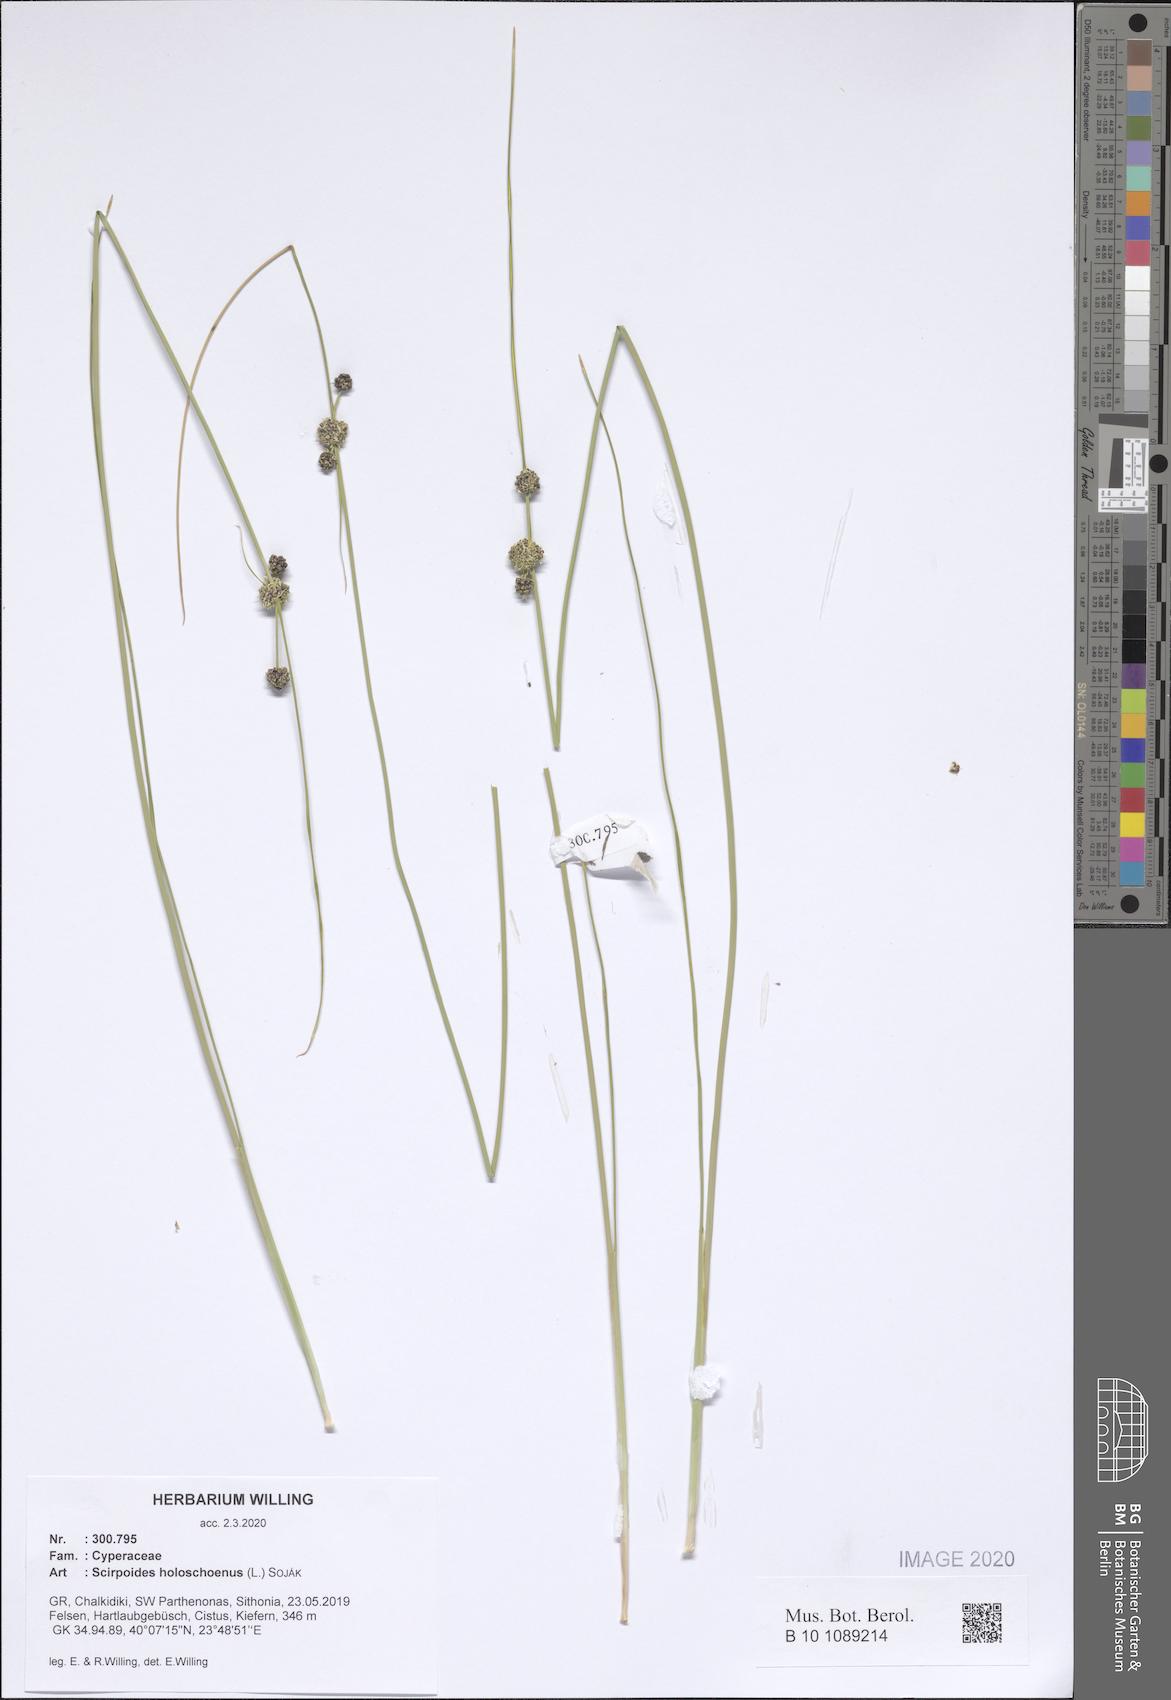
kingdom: Plantae
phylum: Tracheophyta
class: Liliopsida
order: Poales
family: Cyperaceae
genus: Scirpoides
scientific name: Scirpoides holoschoenus
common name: Round-headed club-rush
